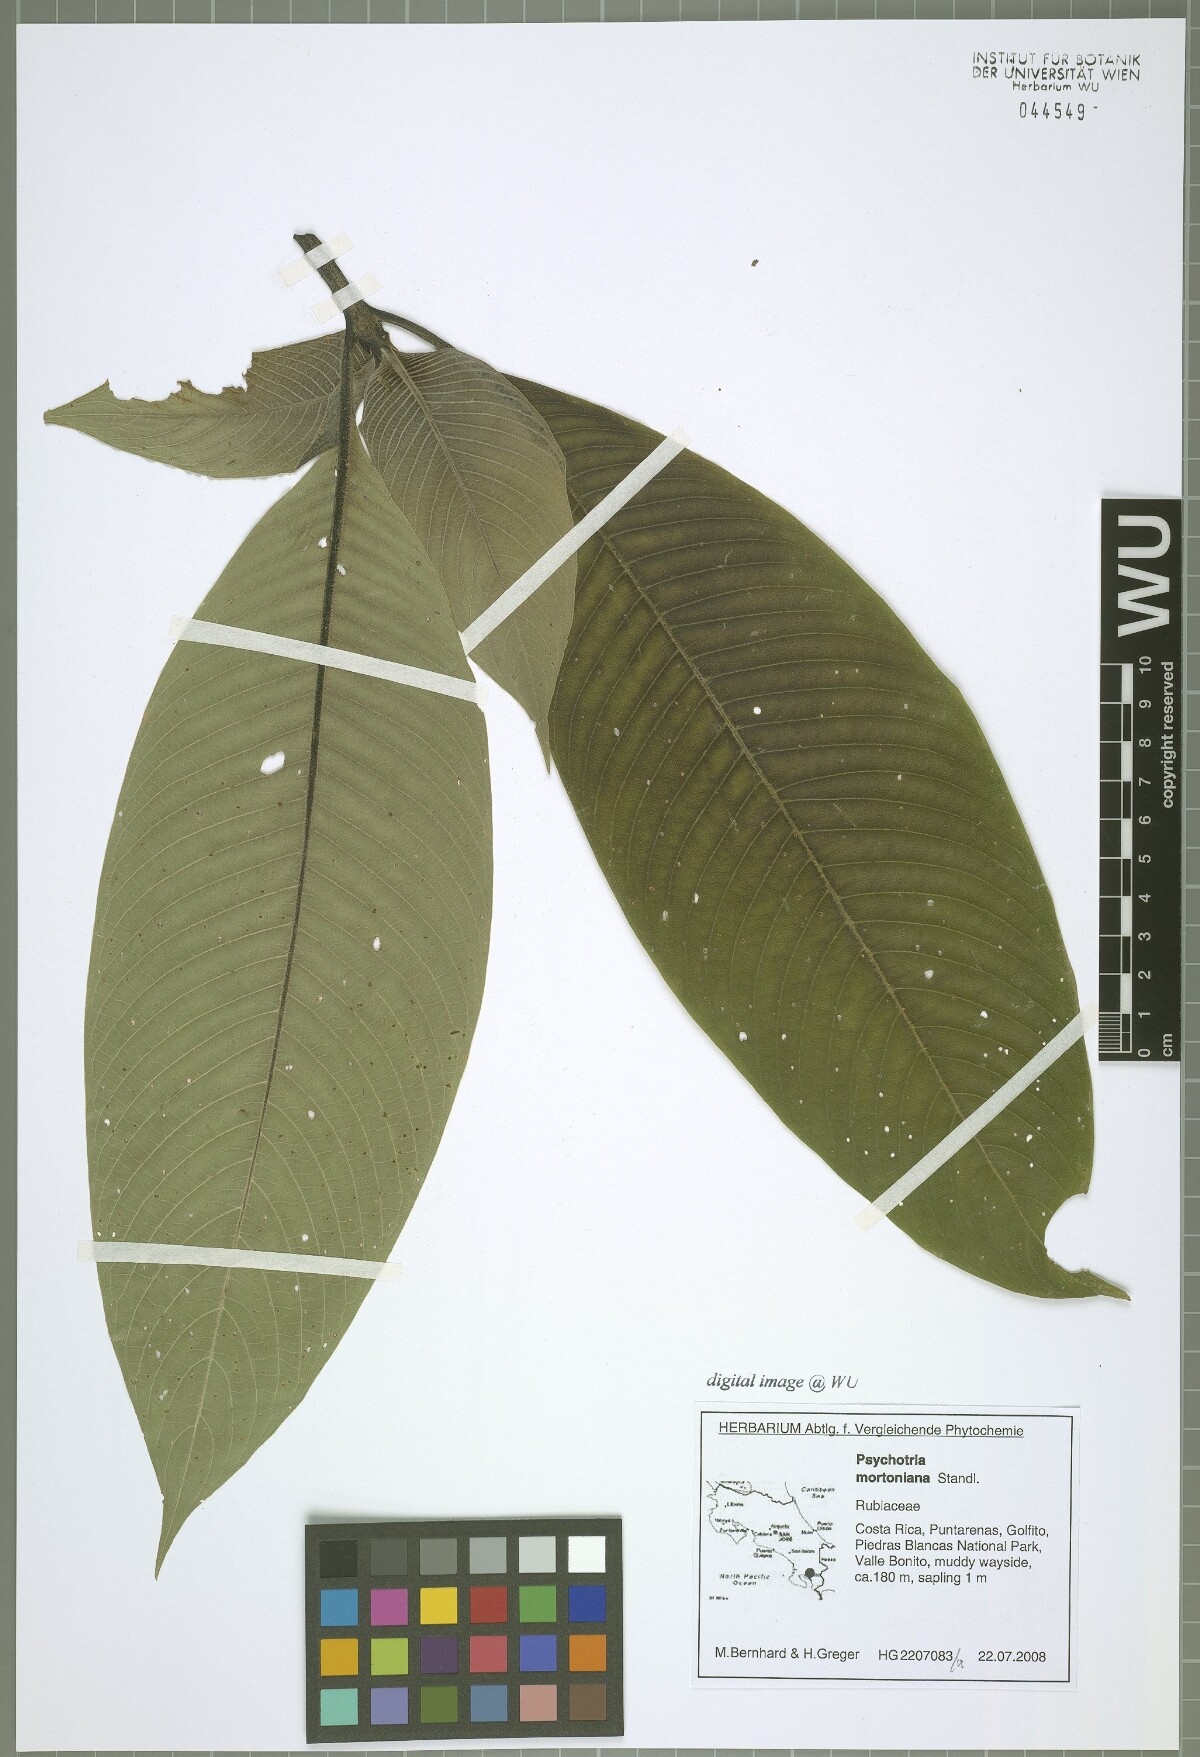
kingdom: Plantae
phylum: Tracheophyta
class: Magnoliopsida
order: Gentianales
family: Rubiaceae
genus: Palicourea
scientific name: Palicourea mortoniana
